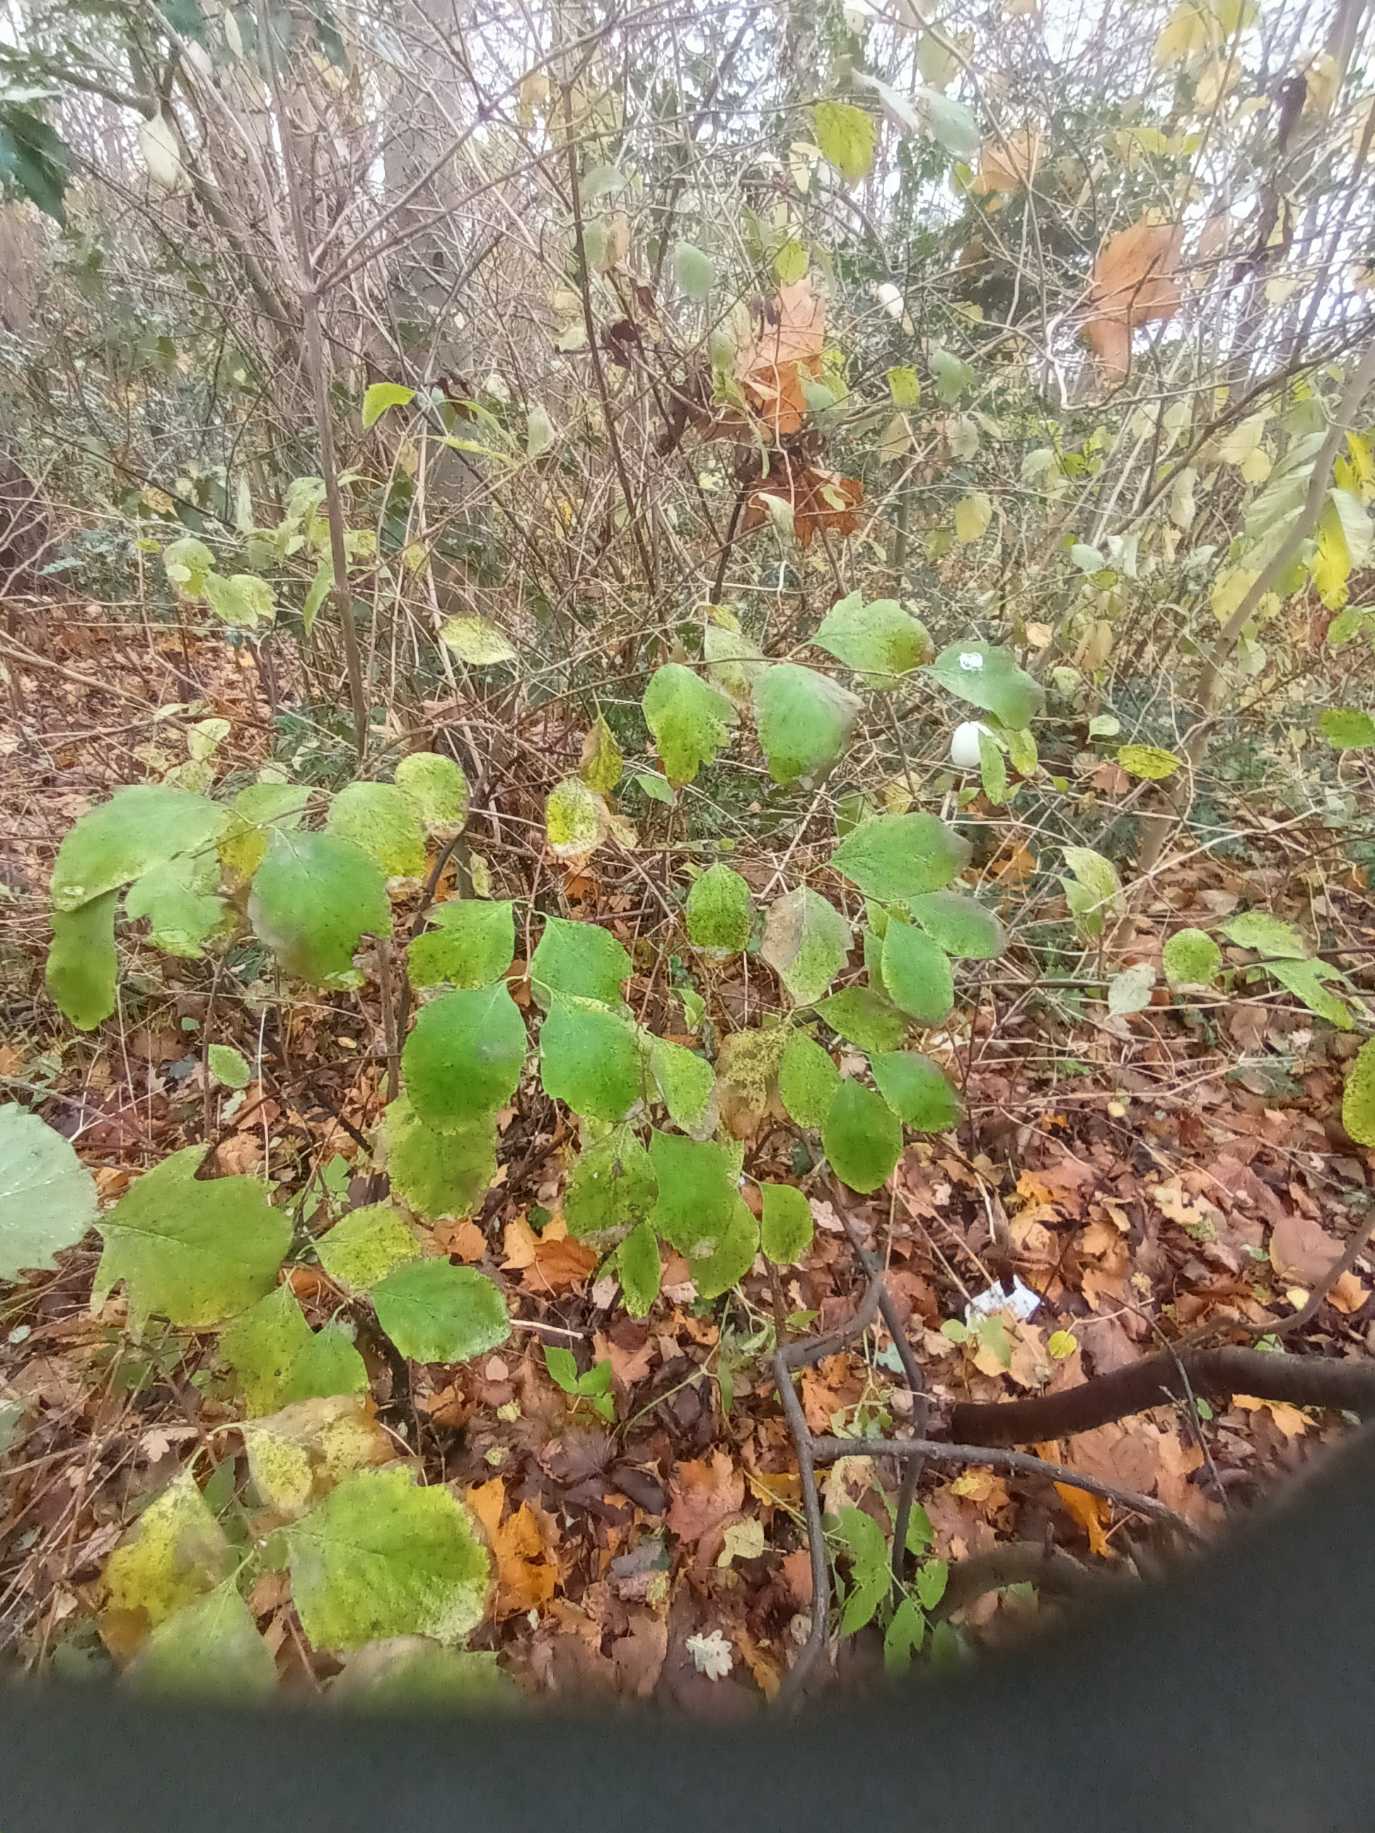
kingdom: Plantae
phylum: Tracheophyta
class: Magnoliopsida
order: Dipsacales
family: Caprifoliaceae
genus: Symphoricarpos
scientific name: Symphoricarpos albus
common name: Almindelig snebær
